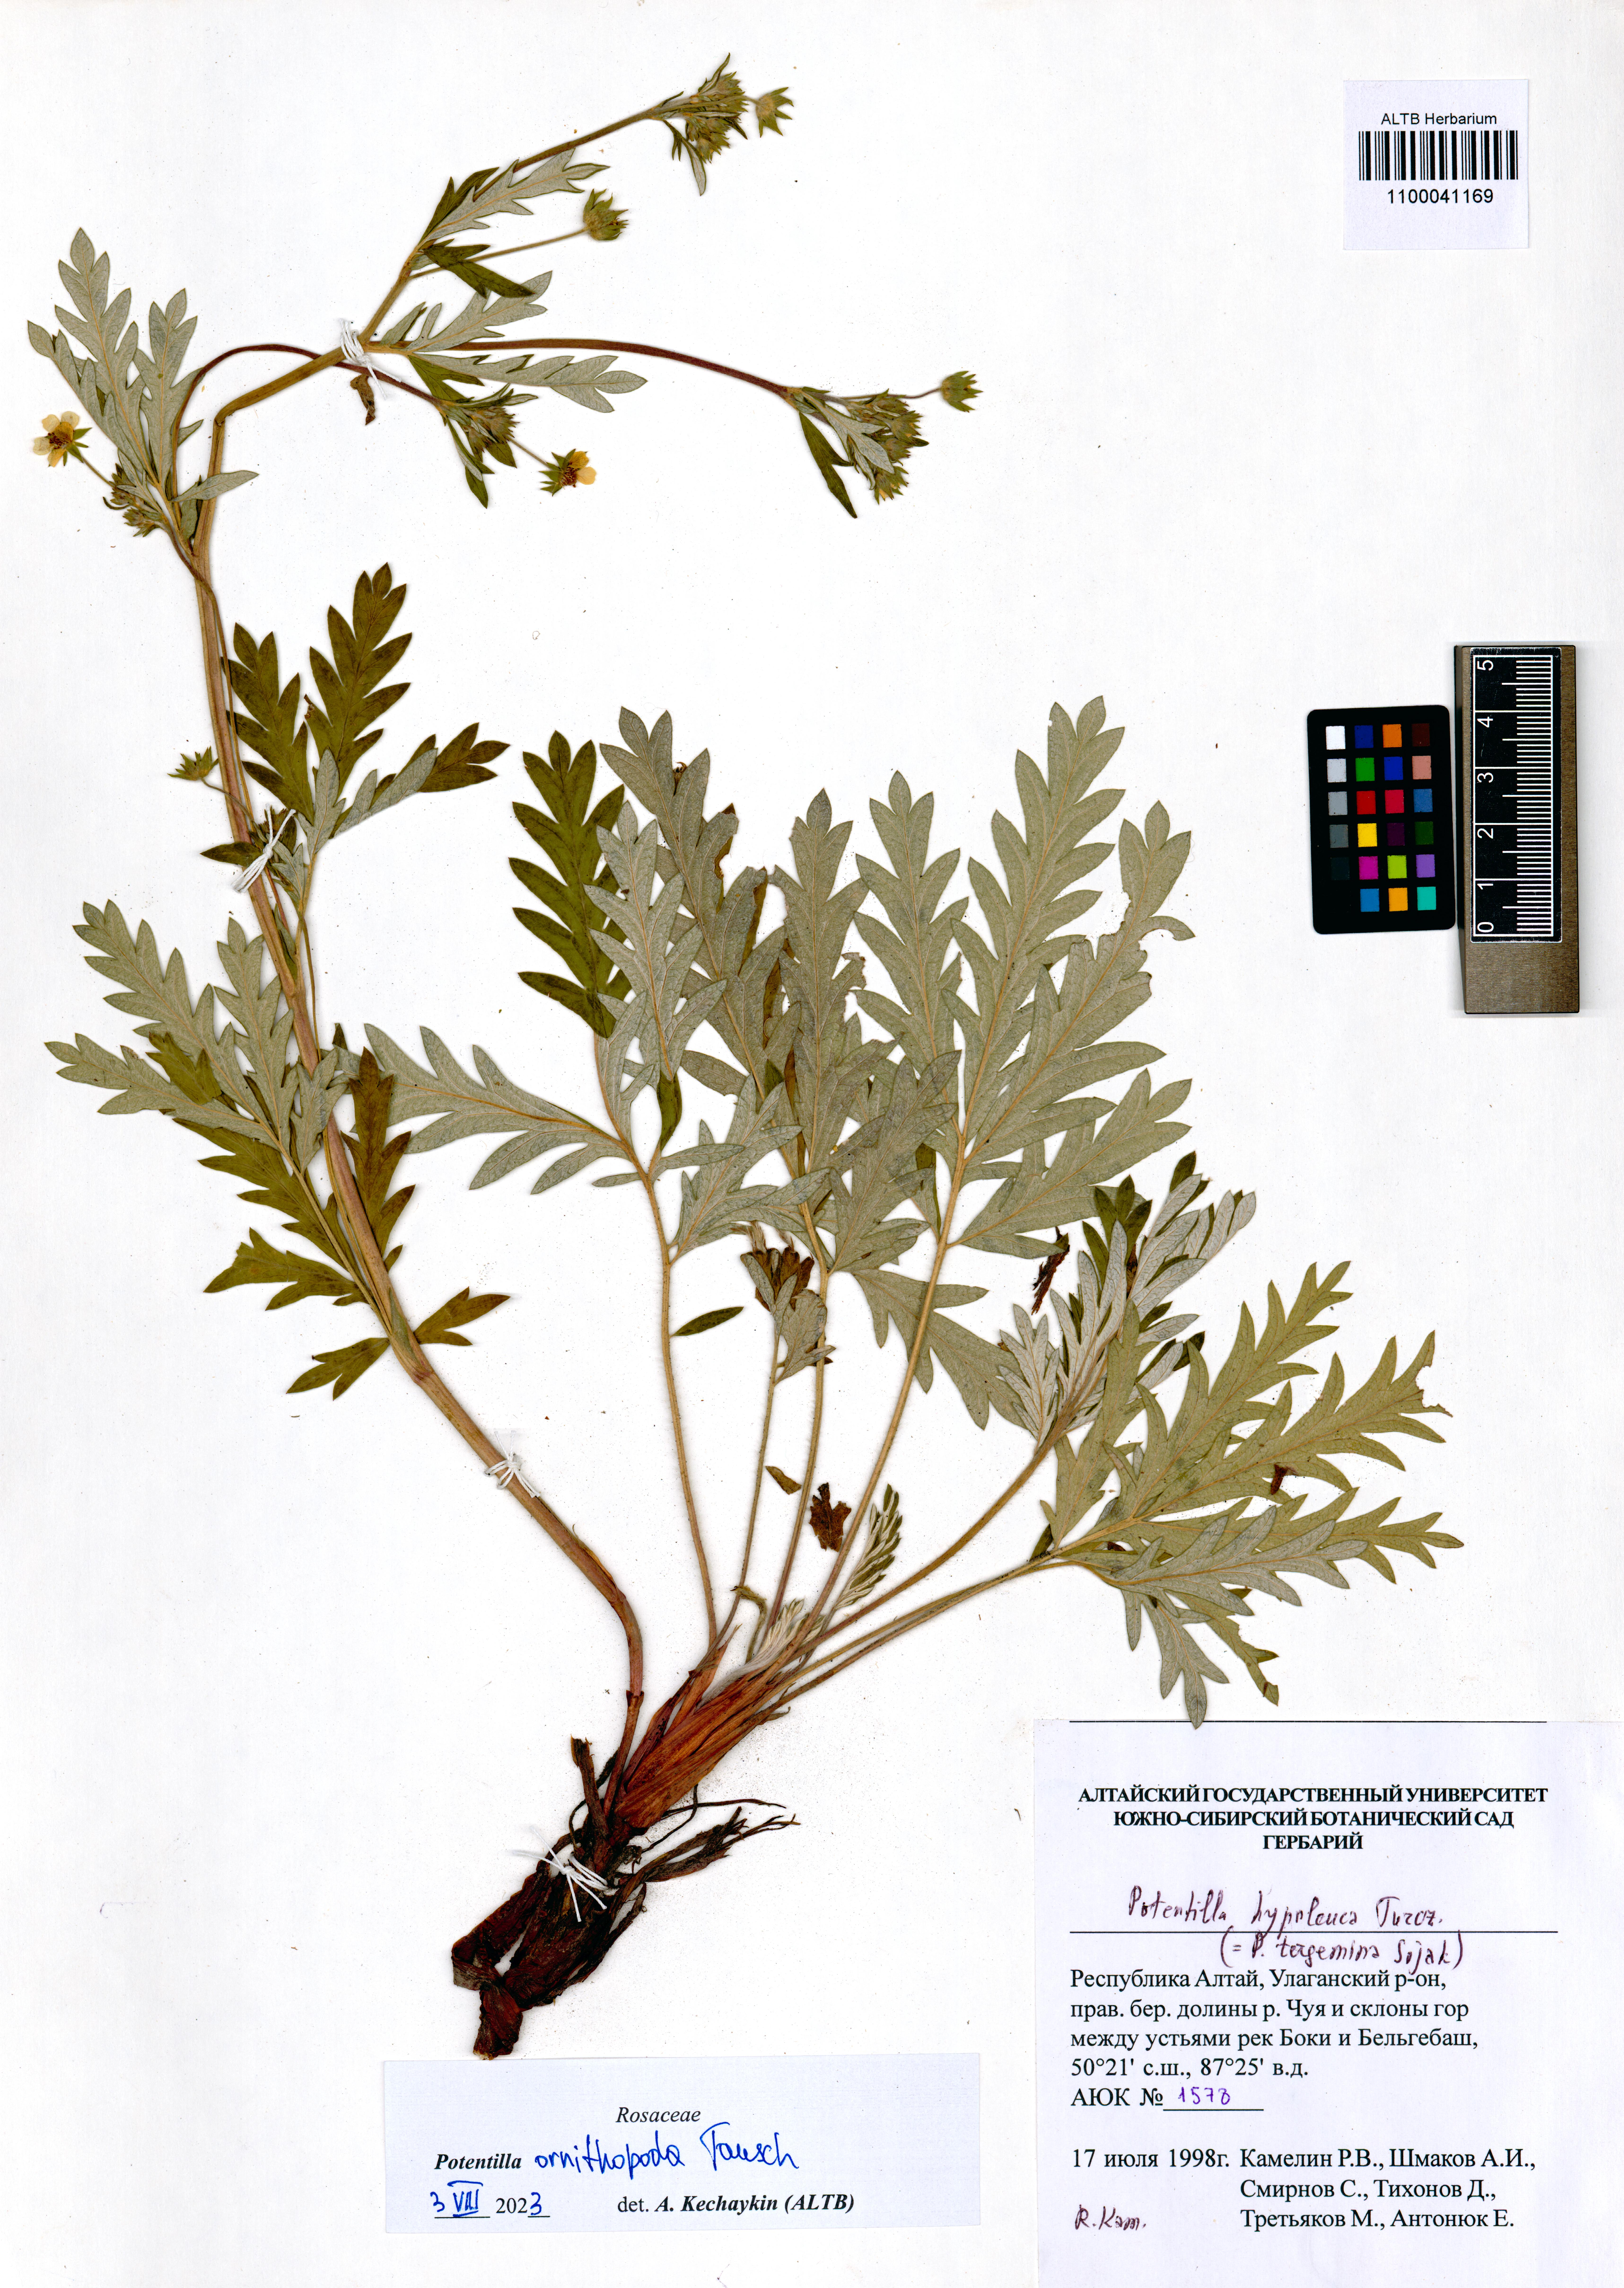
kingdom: Plantae
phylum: Tracheophyta
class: Magnoliopsida
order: Rosales
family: Rosaceae
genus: Potentilla
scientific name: Potentilla ornithopoda
